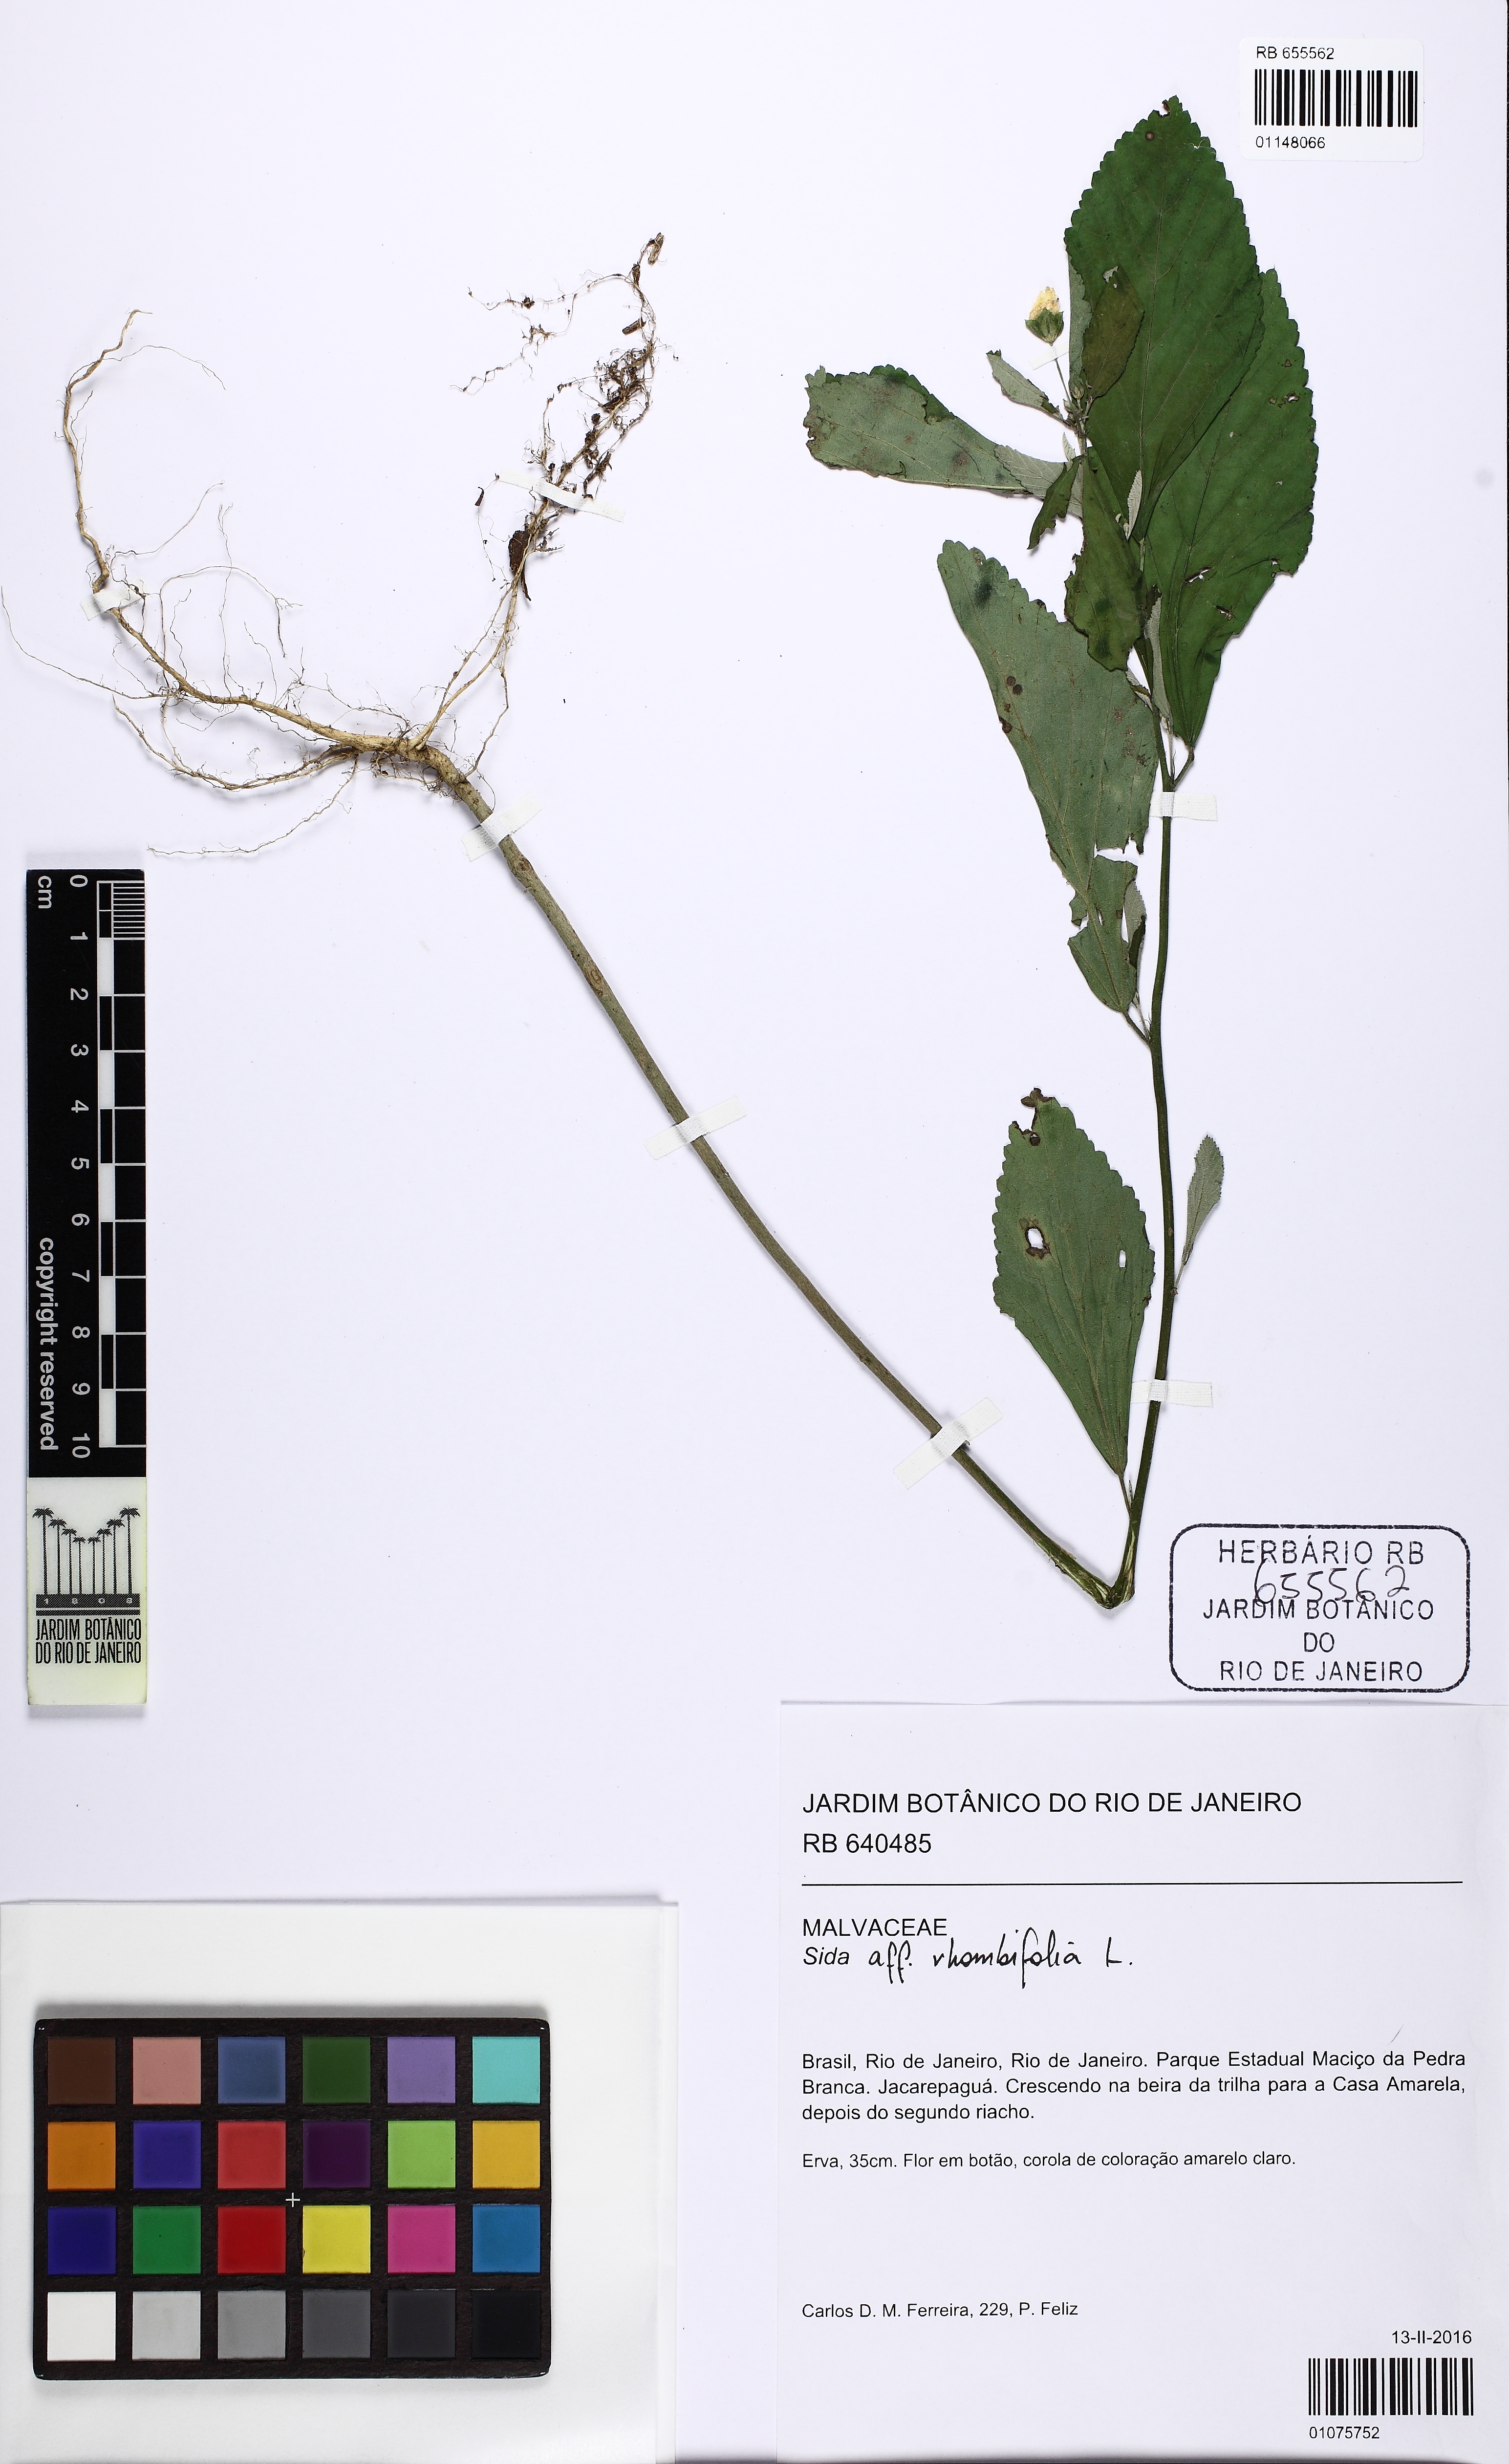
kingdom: Plantae
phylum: Tracheophyta
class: Magnoliopsida
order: Malvales
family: Malvaceae
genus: Sida
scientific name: Sida
